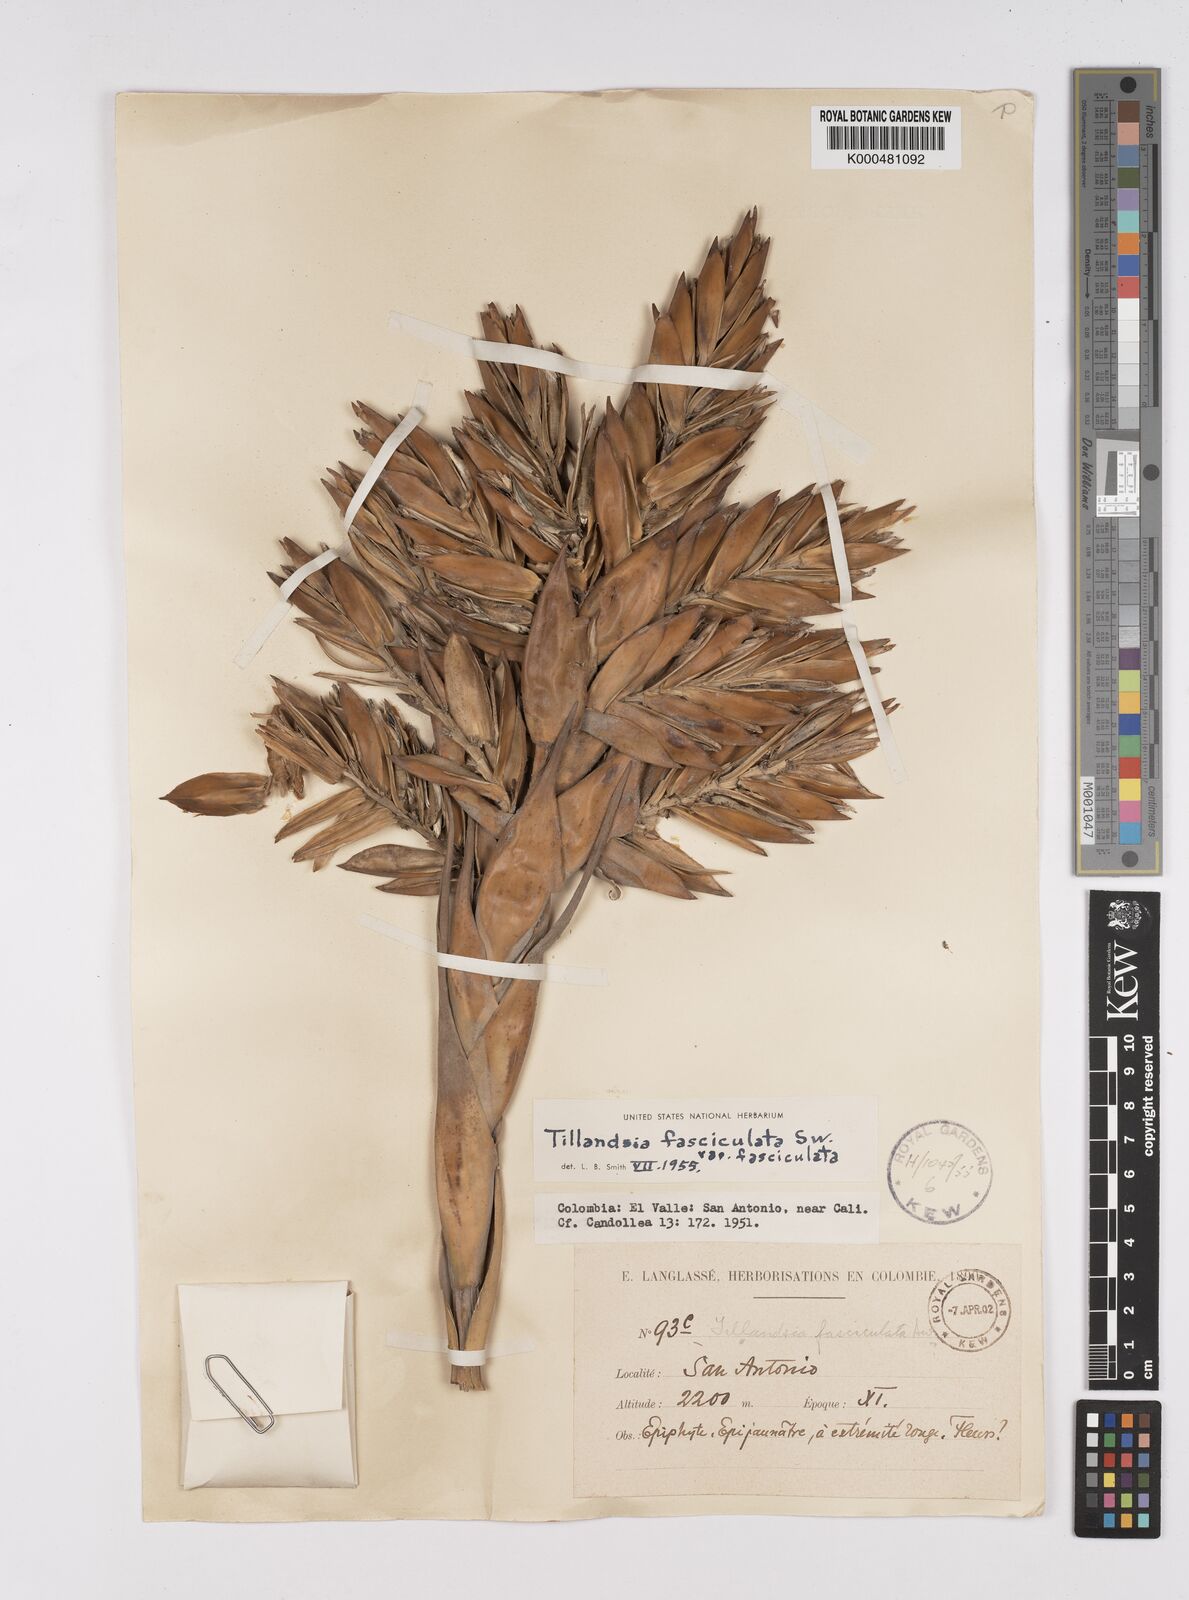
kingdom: Plantae
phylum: Tracheophyta
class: Liliopsida
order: Poales
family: Bromeliaceae
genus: Tillandsia
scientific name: Tillandsia fasciculata
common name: Giant airplant
